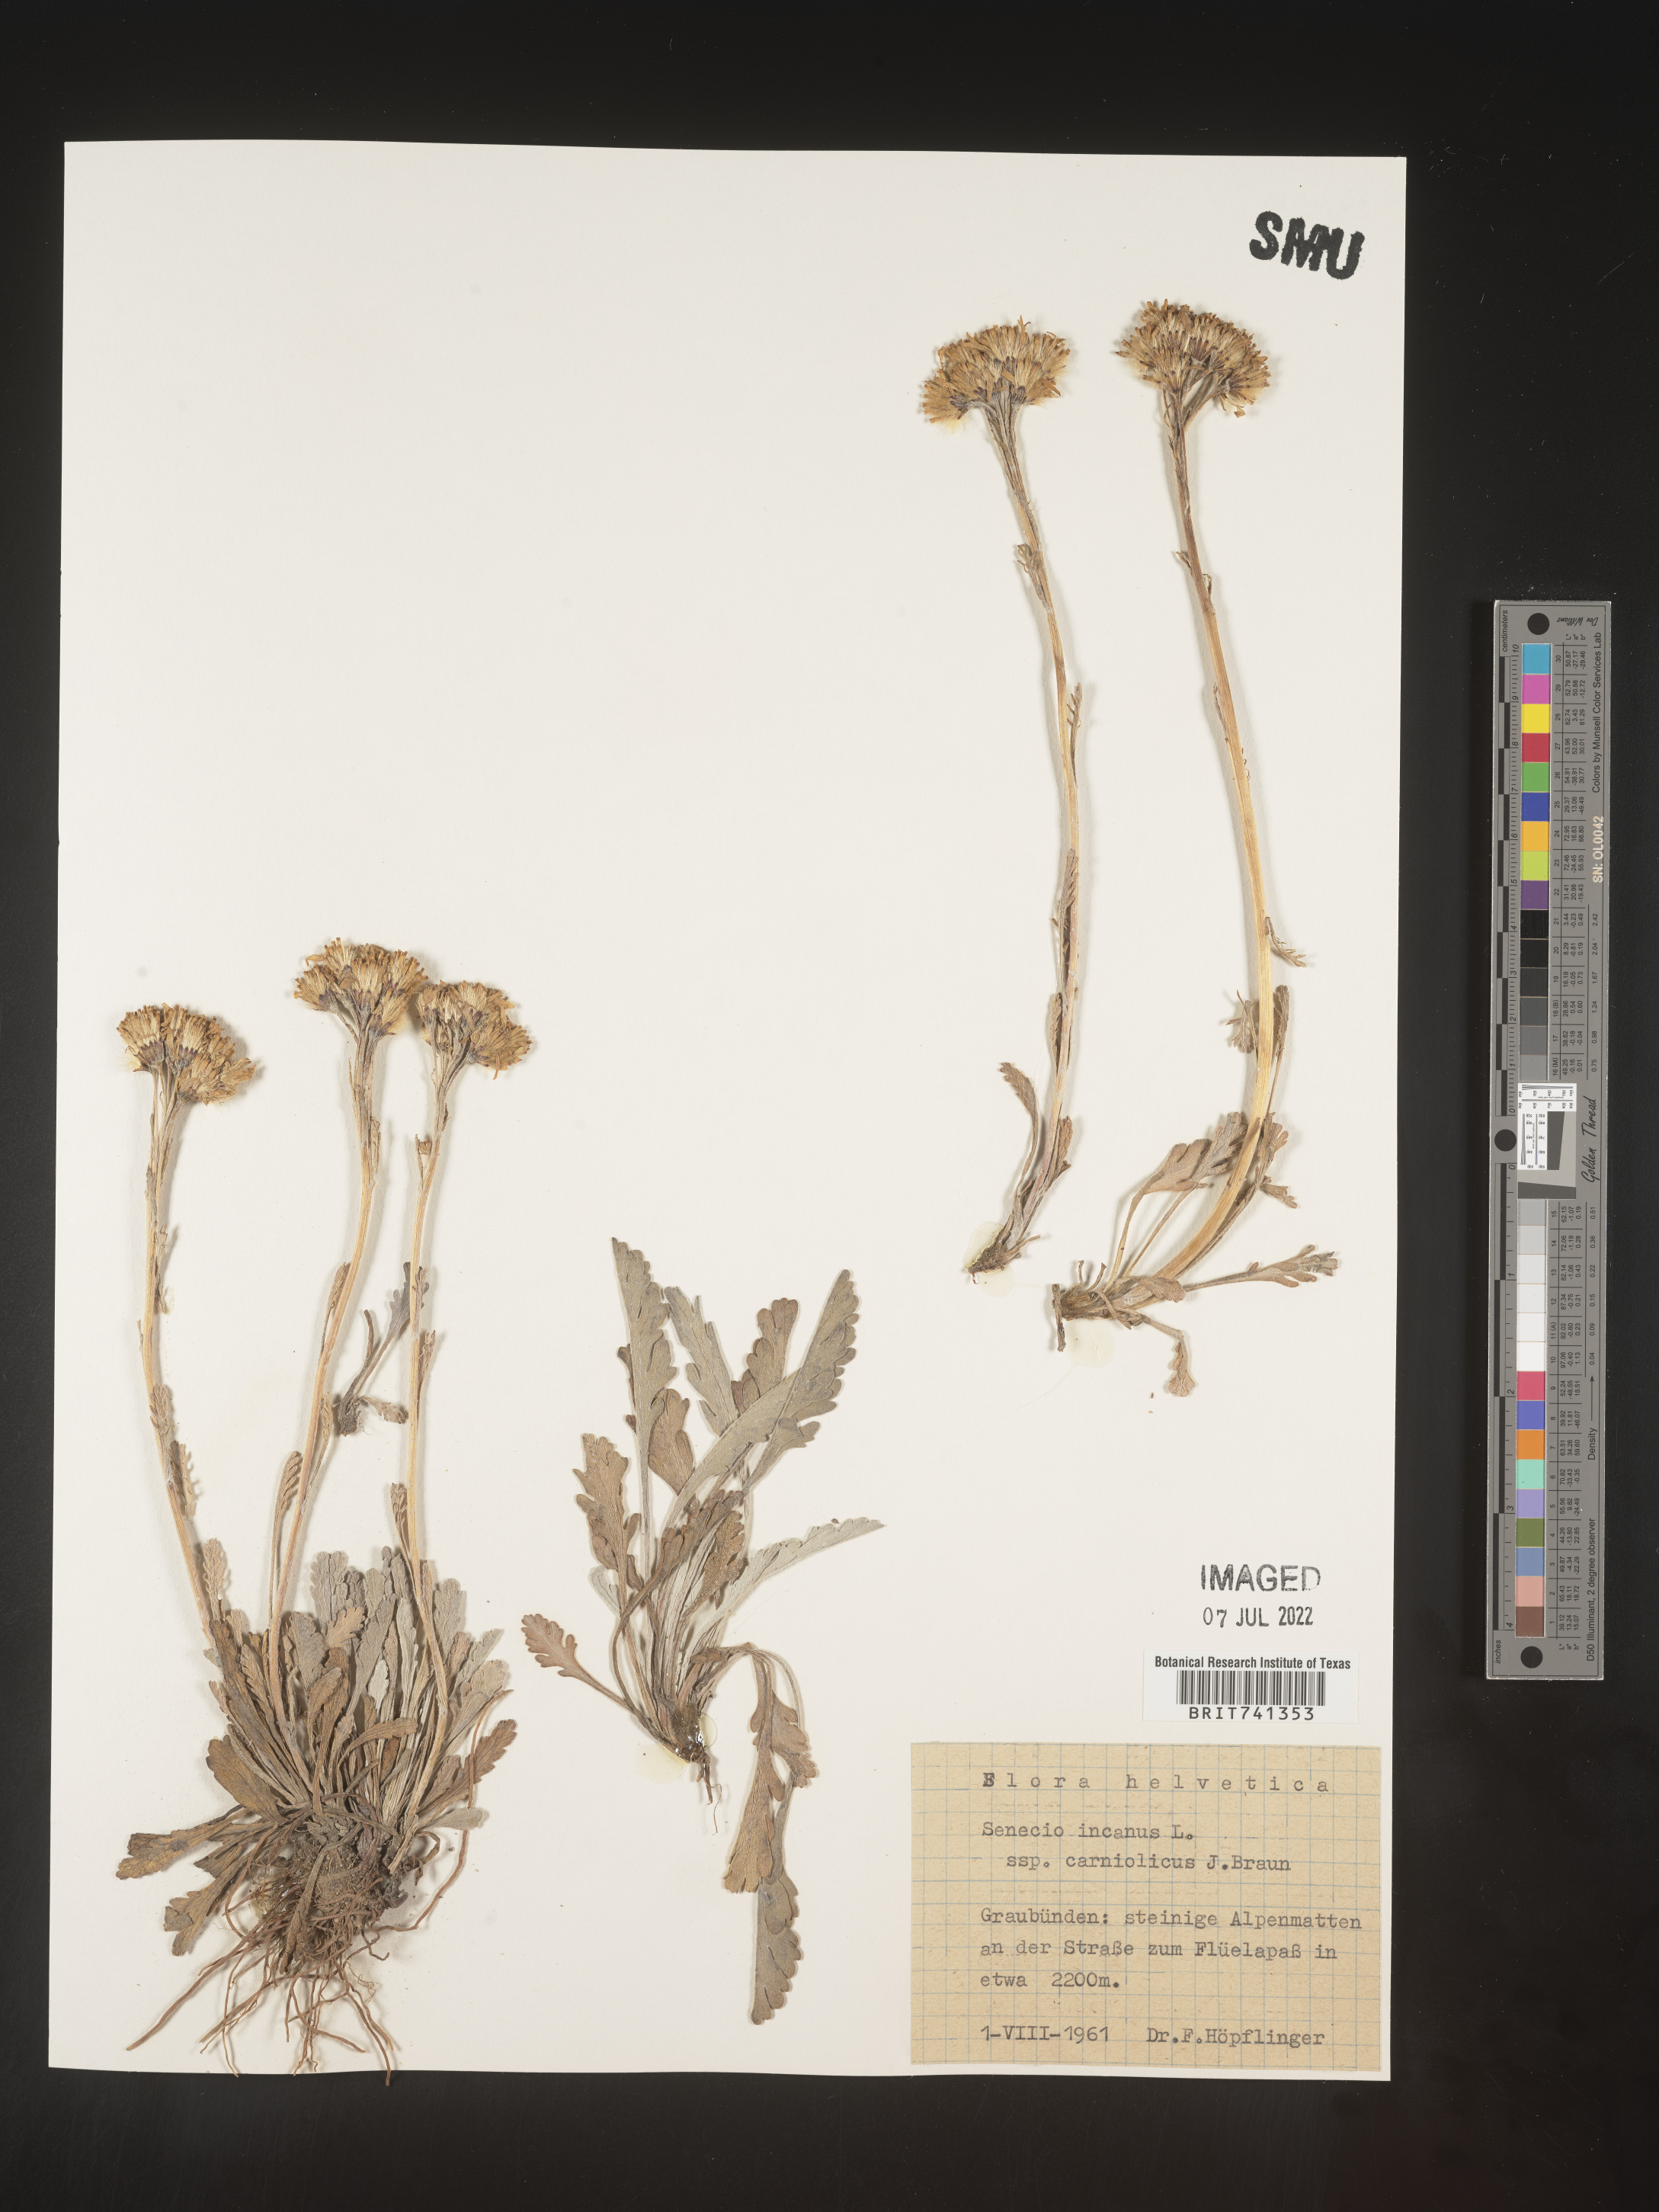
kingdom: Plantae
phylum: Tracheophyta
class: Magnoliopsida
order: Asterales
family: Asteraceae
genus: Senecio
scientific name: Senecio
